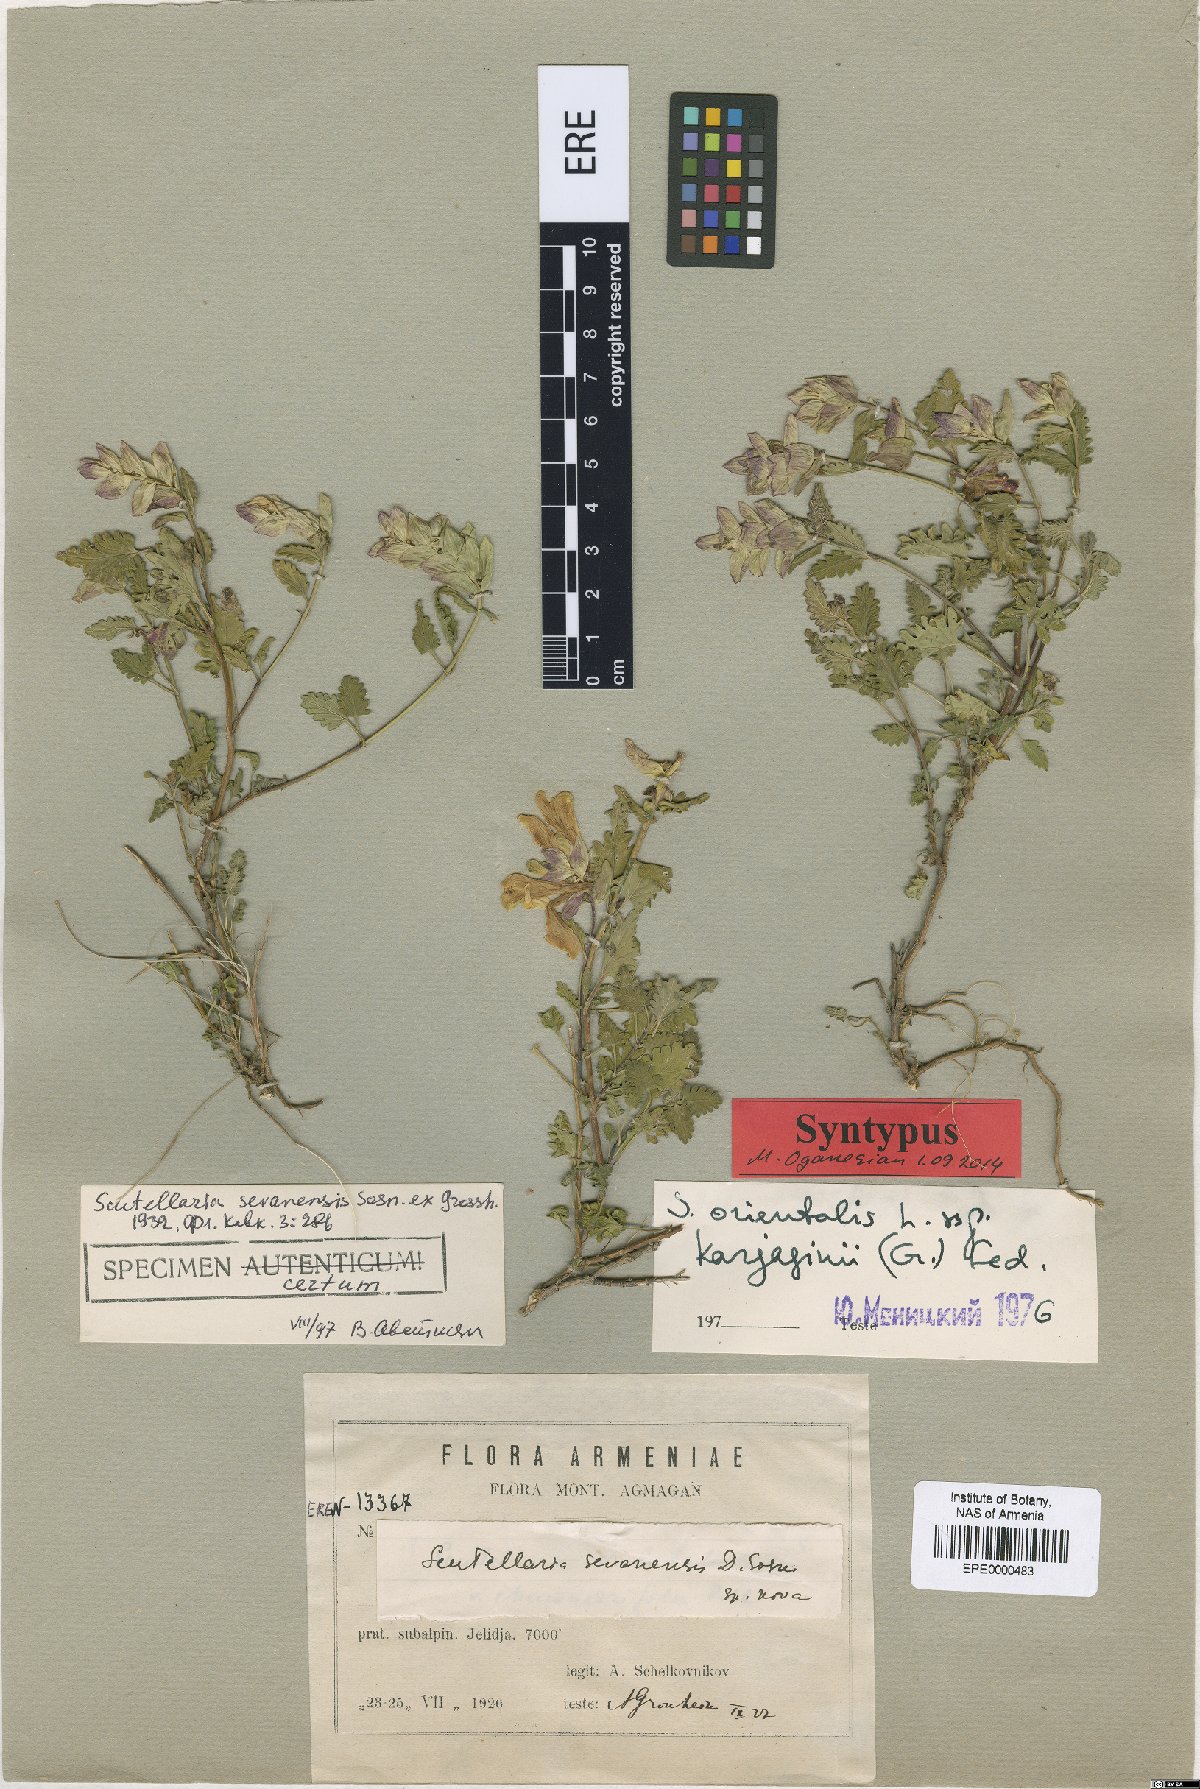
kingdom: Plantae
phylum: Tracheophyta
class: Magnoliopsida
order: Lamiales
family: Lamiaceae
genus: Scutellaria
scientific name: Scutellaria sevanensis
